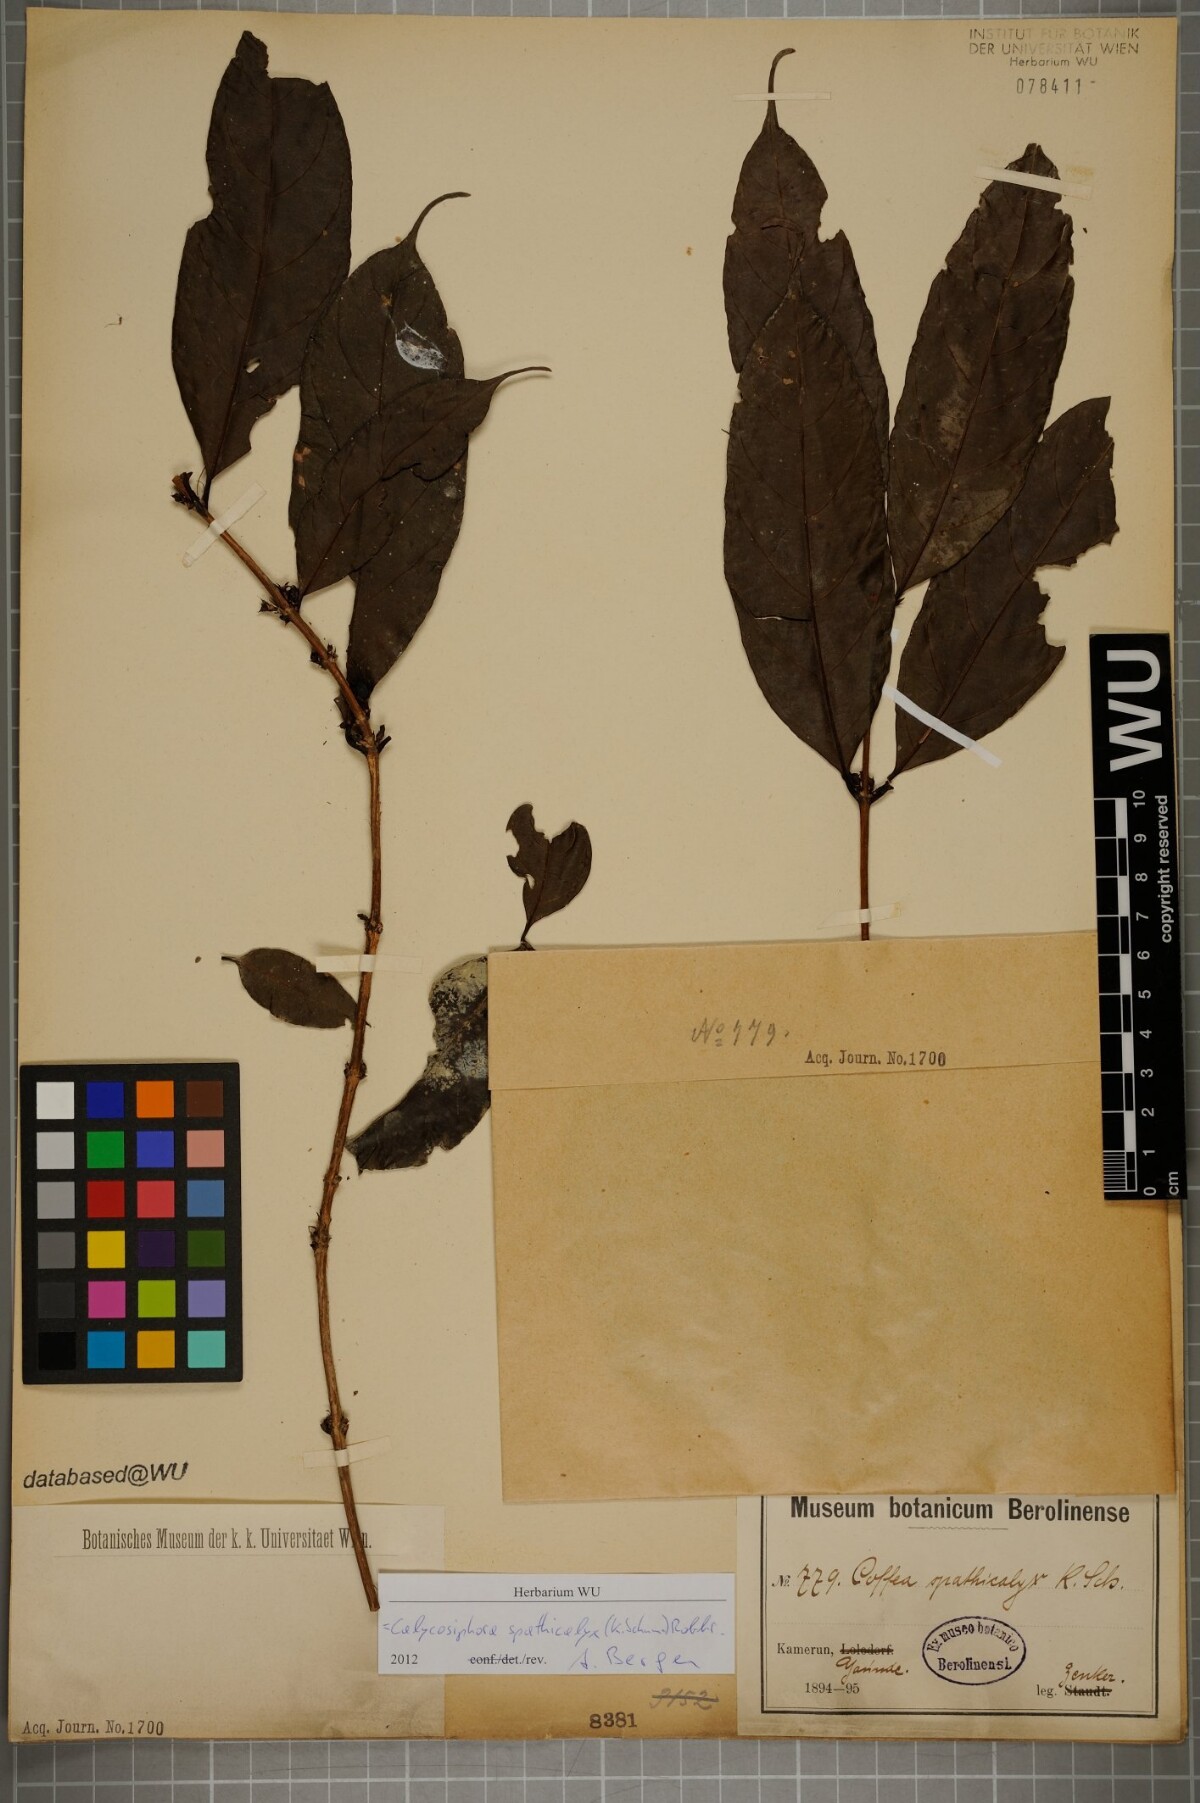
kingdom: Plantae
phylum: Tracheophyta
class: Magnoliopsida
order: Gentianales
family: Rubiaceae
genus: Calycosiphonia
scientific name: Calycosiphonia spathicalyx
